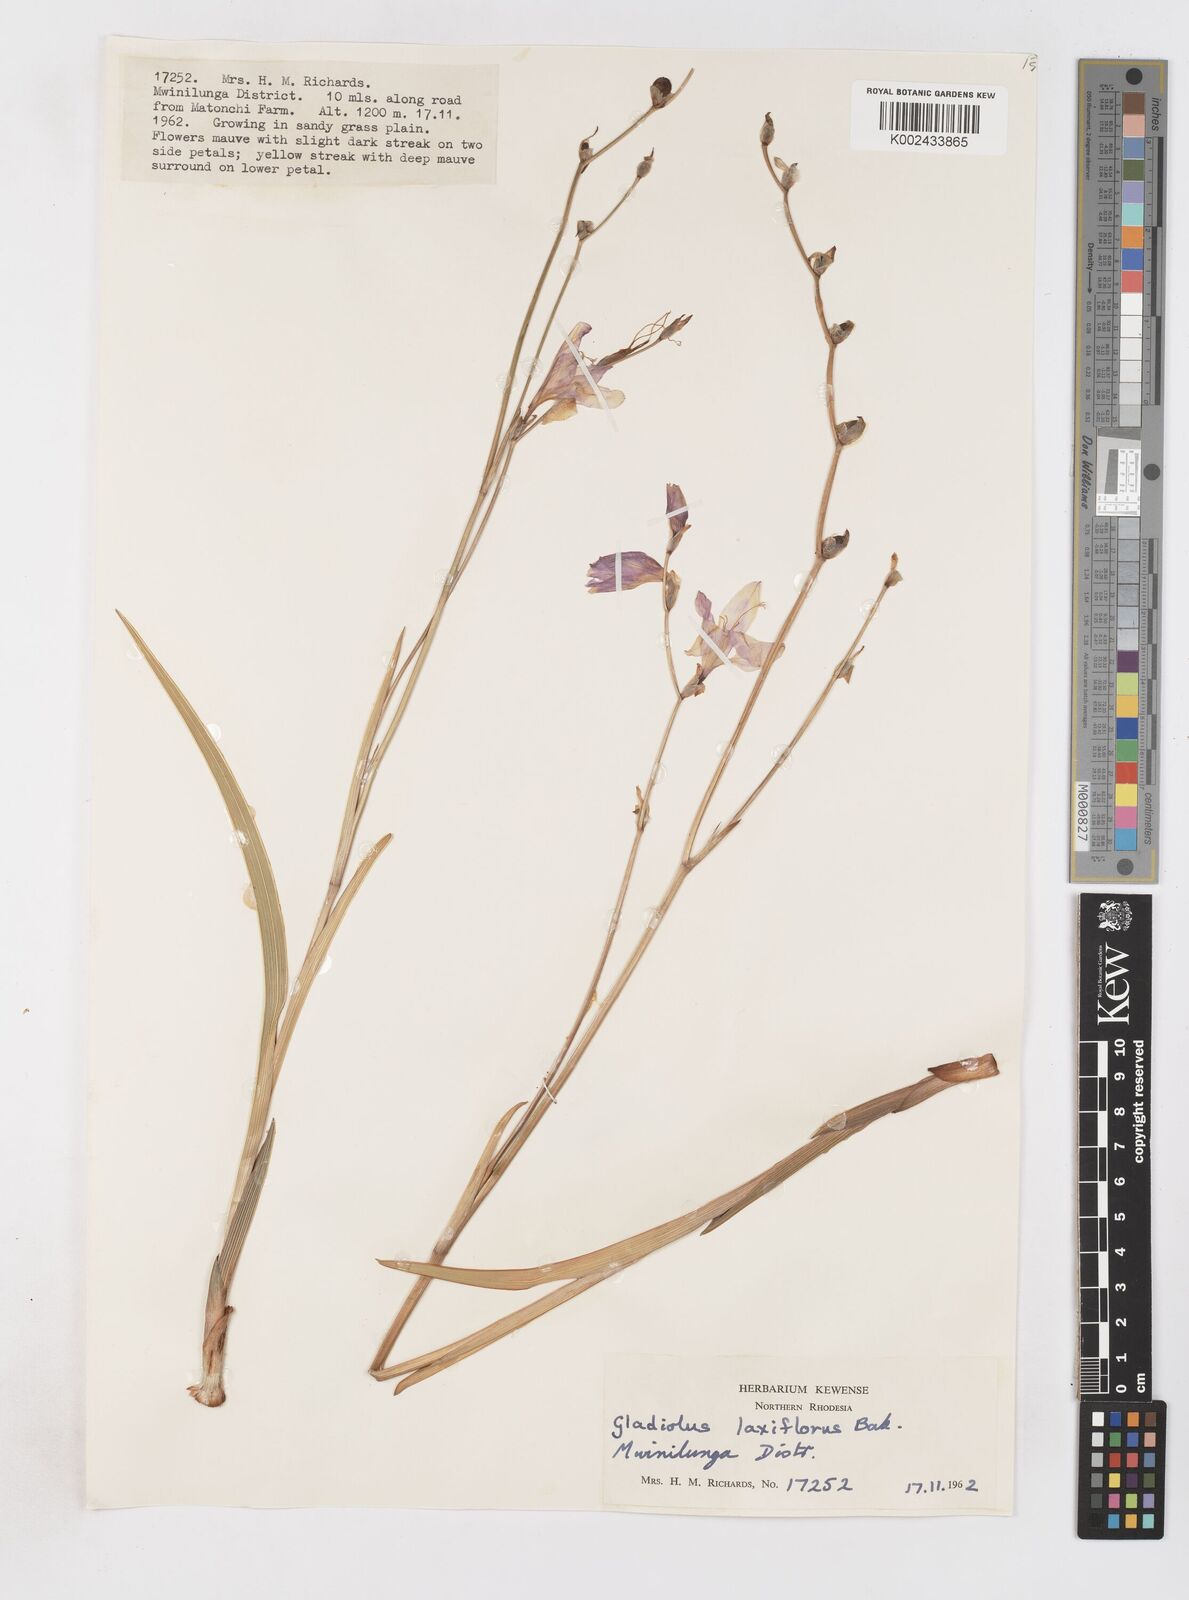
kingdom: Plantae
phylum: Tracheophyta
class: Liliopsida
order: Asparagales
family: Iridaceae
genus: Gladiolus
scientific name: Gladiolus laxiflorus
